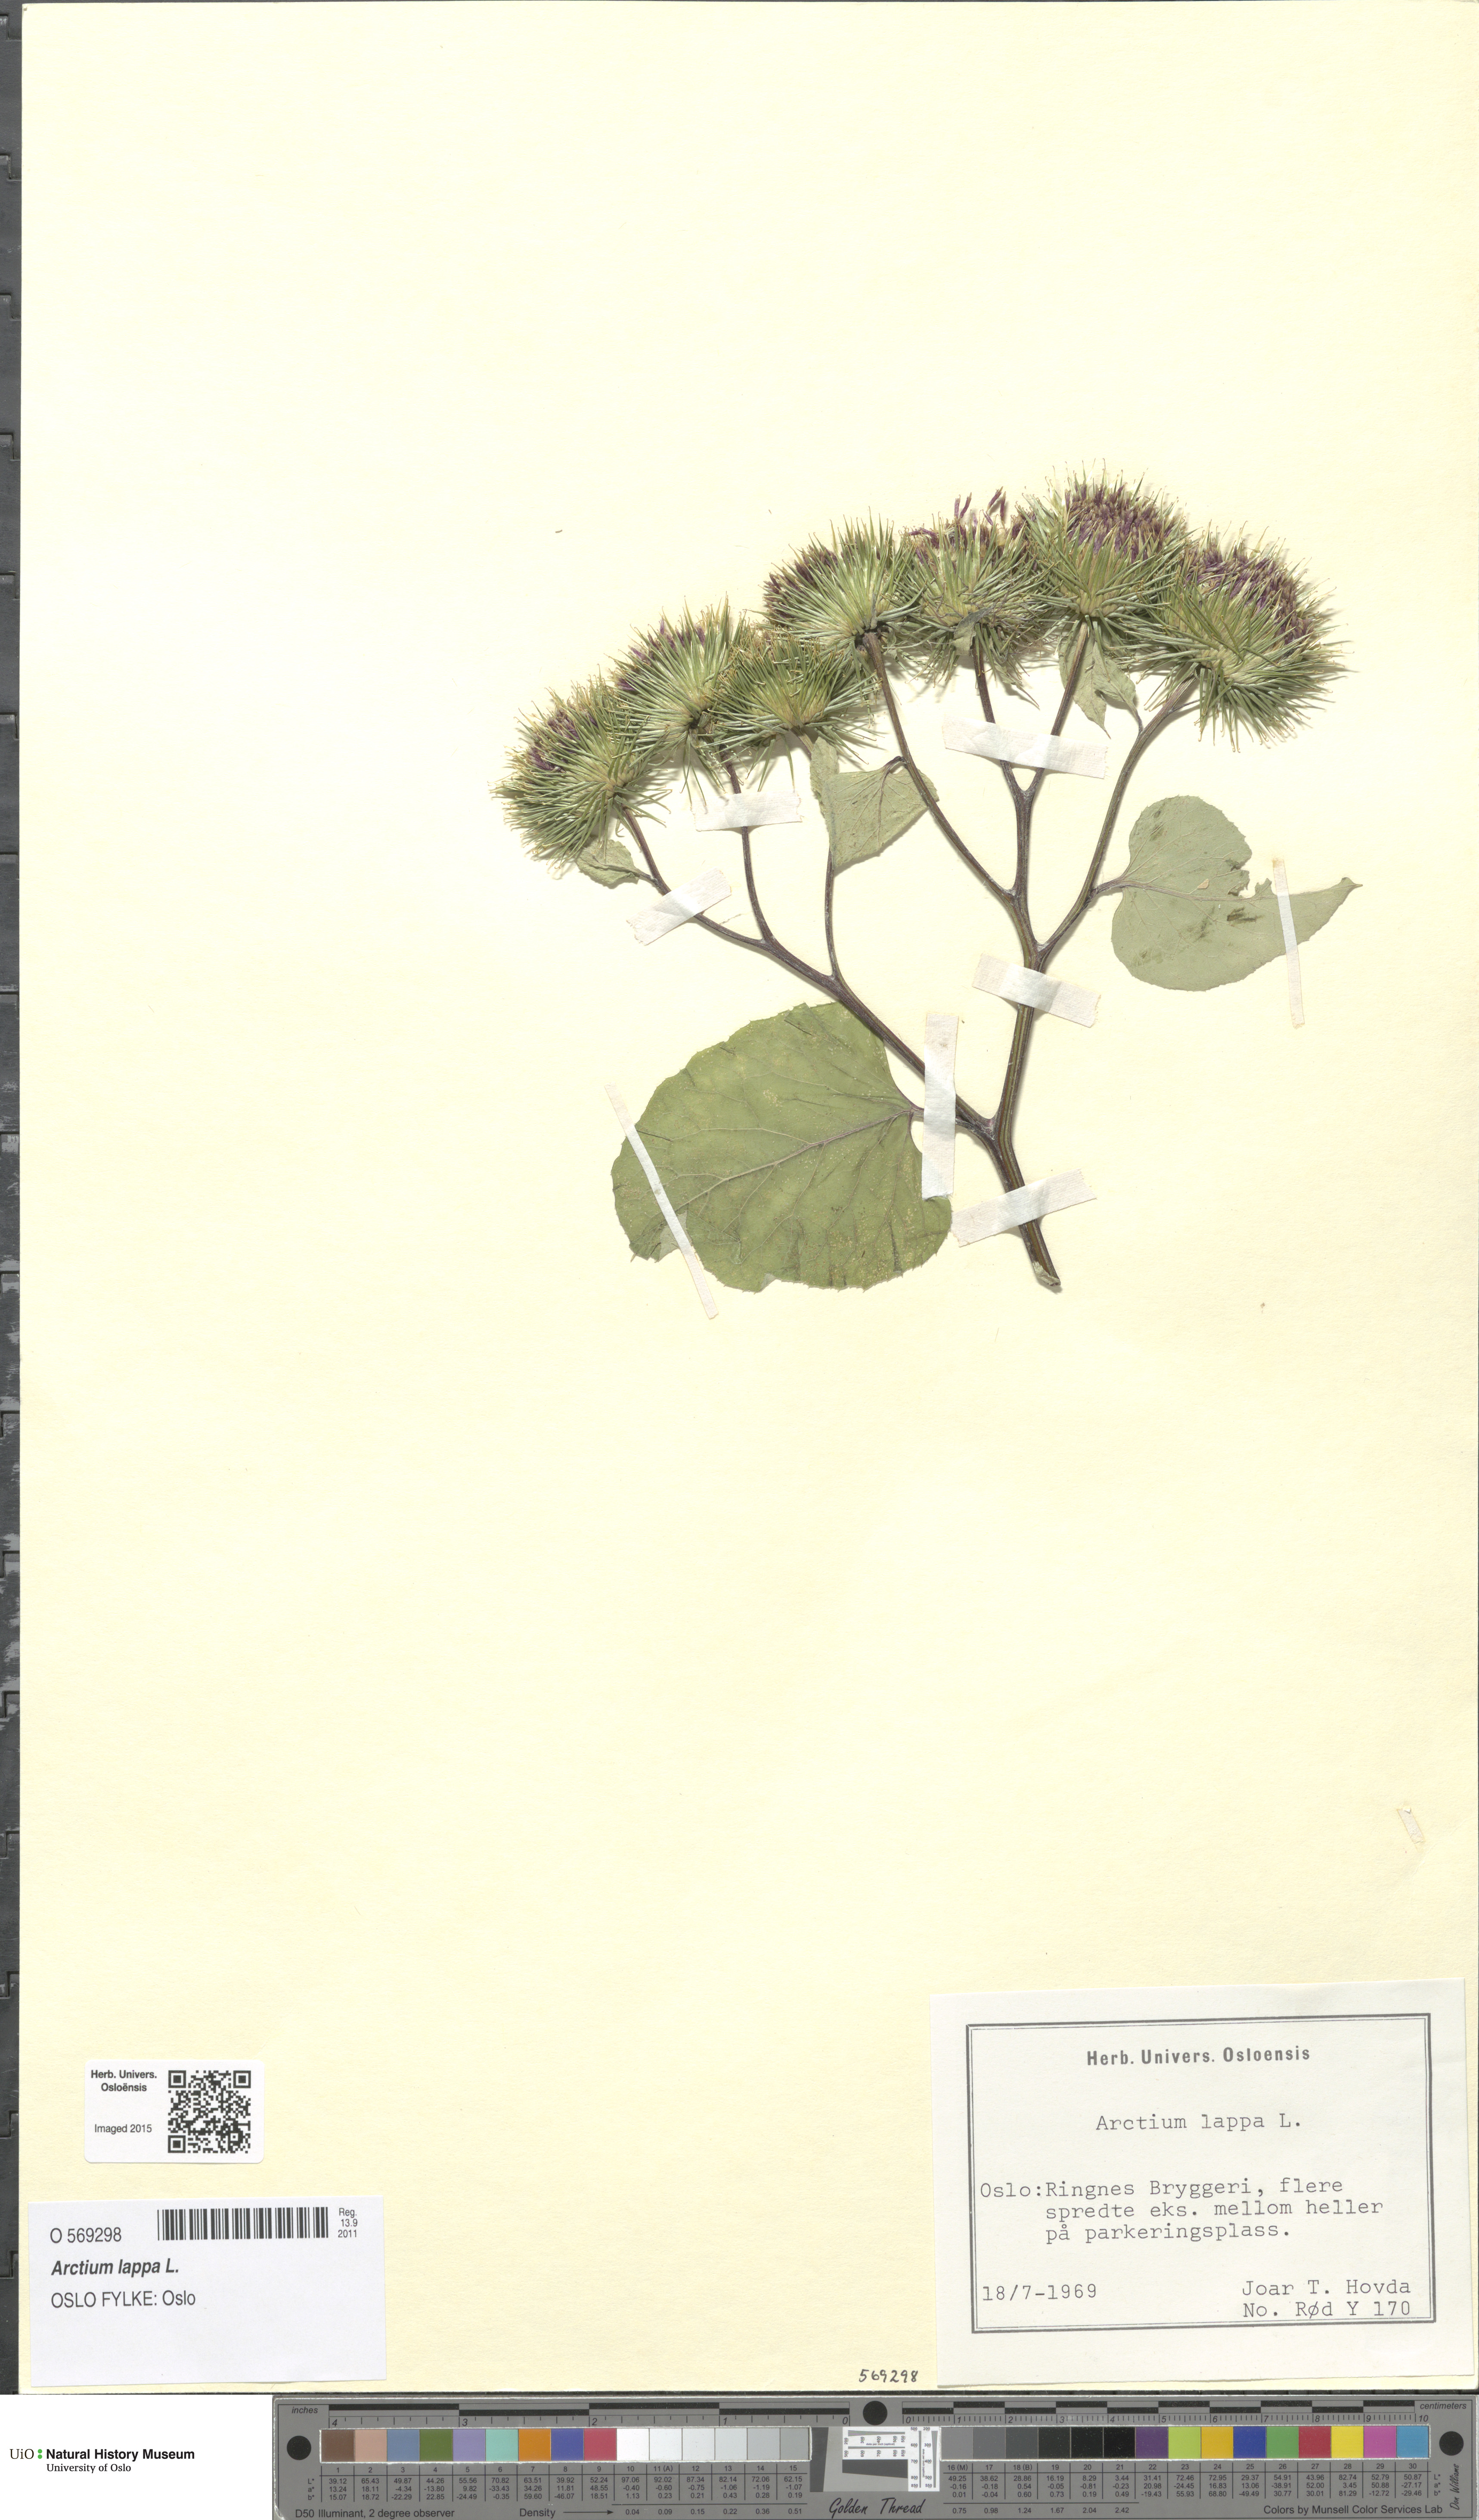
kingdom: Plantae
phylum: Tracheophyta
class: Magnoliopsida
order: Asterales
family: Asteraceae
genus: Arctium
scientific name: Arctium lappa
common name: Greater burdock
